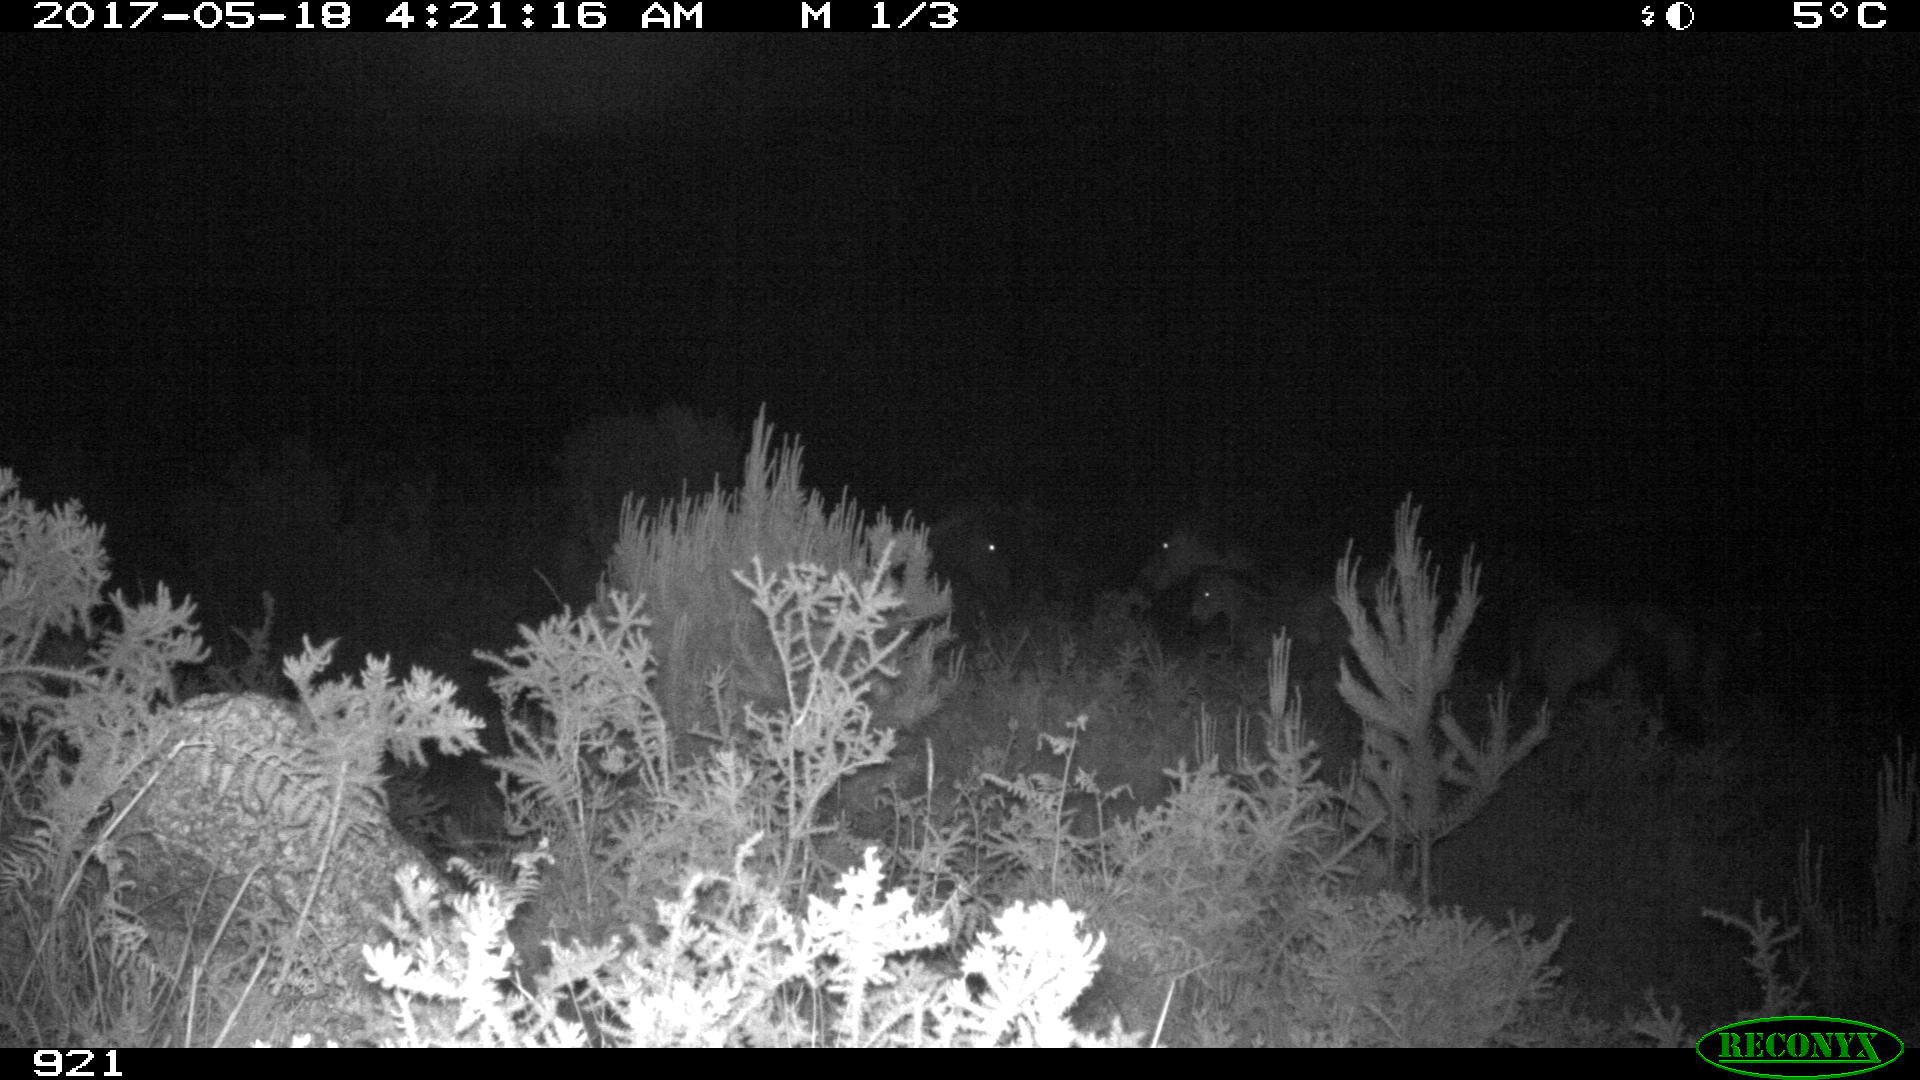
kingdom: Animalia
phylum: Chordata
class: Mammalia
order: Perissodactyla
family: Equidae
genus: Equus
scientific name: Equus caballus
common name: Horse
